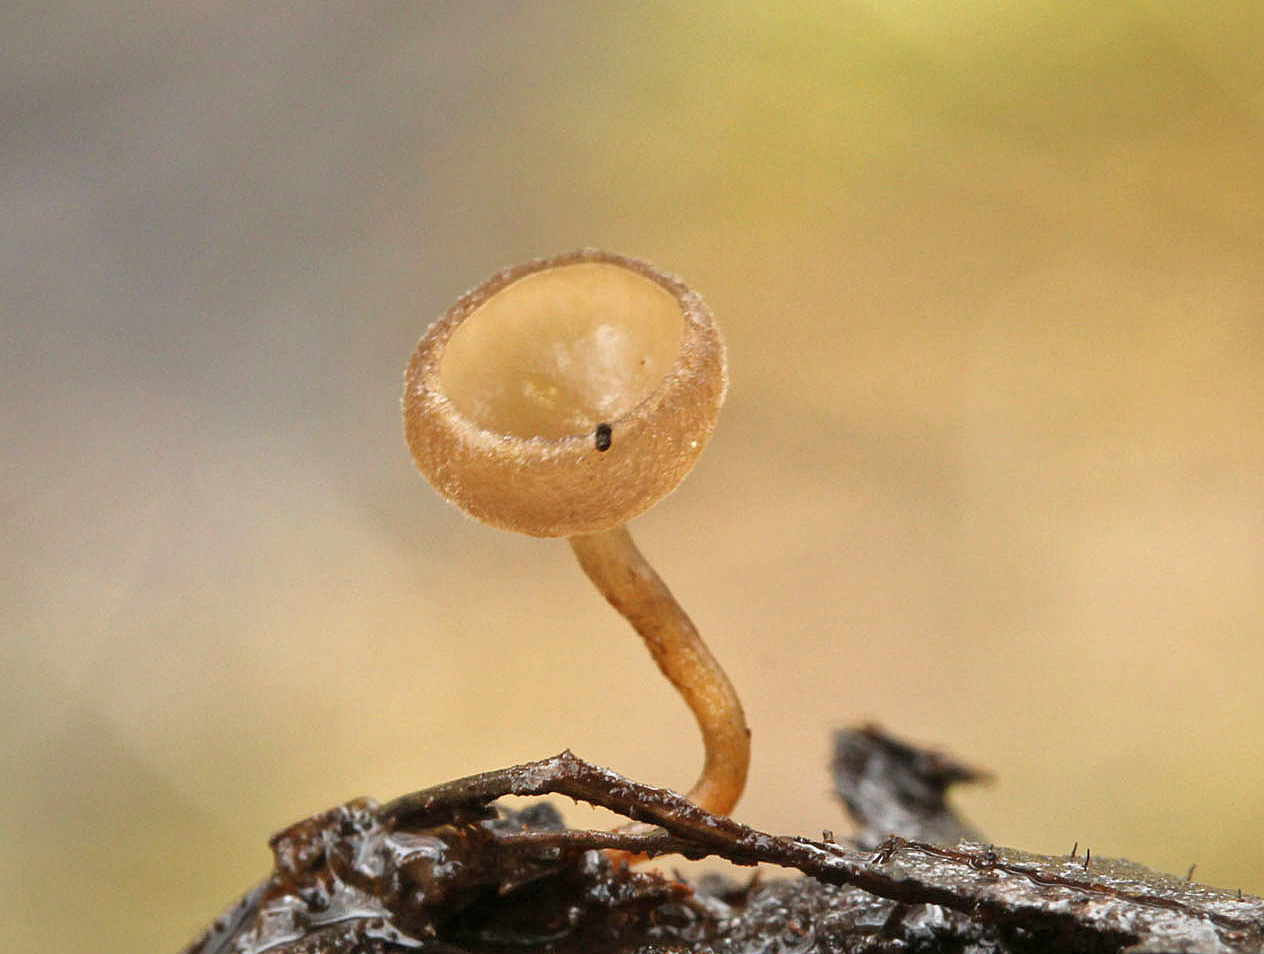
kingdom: Fungi
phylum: Ascomycota
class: Leotiomycetes
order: Helotiales
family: Sclerotiniaceae
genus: Ciboria
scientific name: Ciboria amentacea
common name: ellerakle-knoldskive
